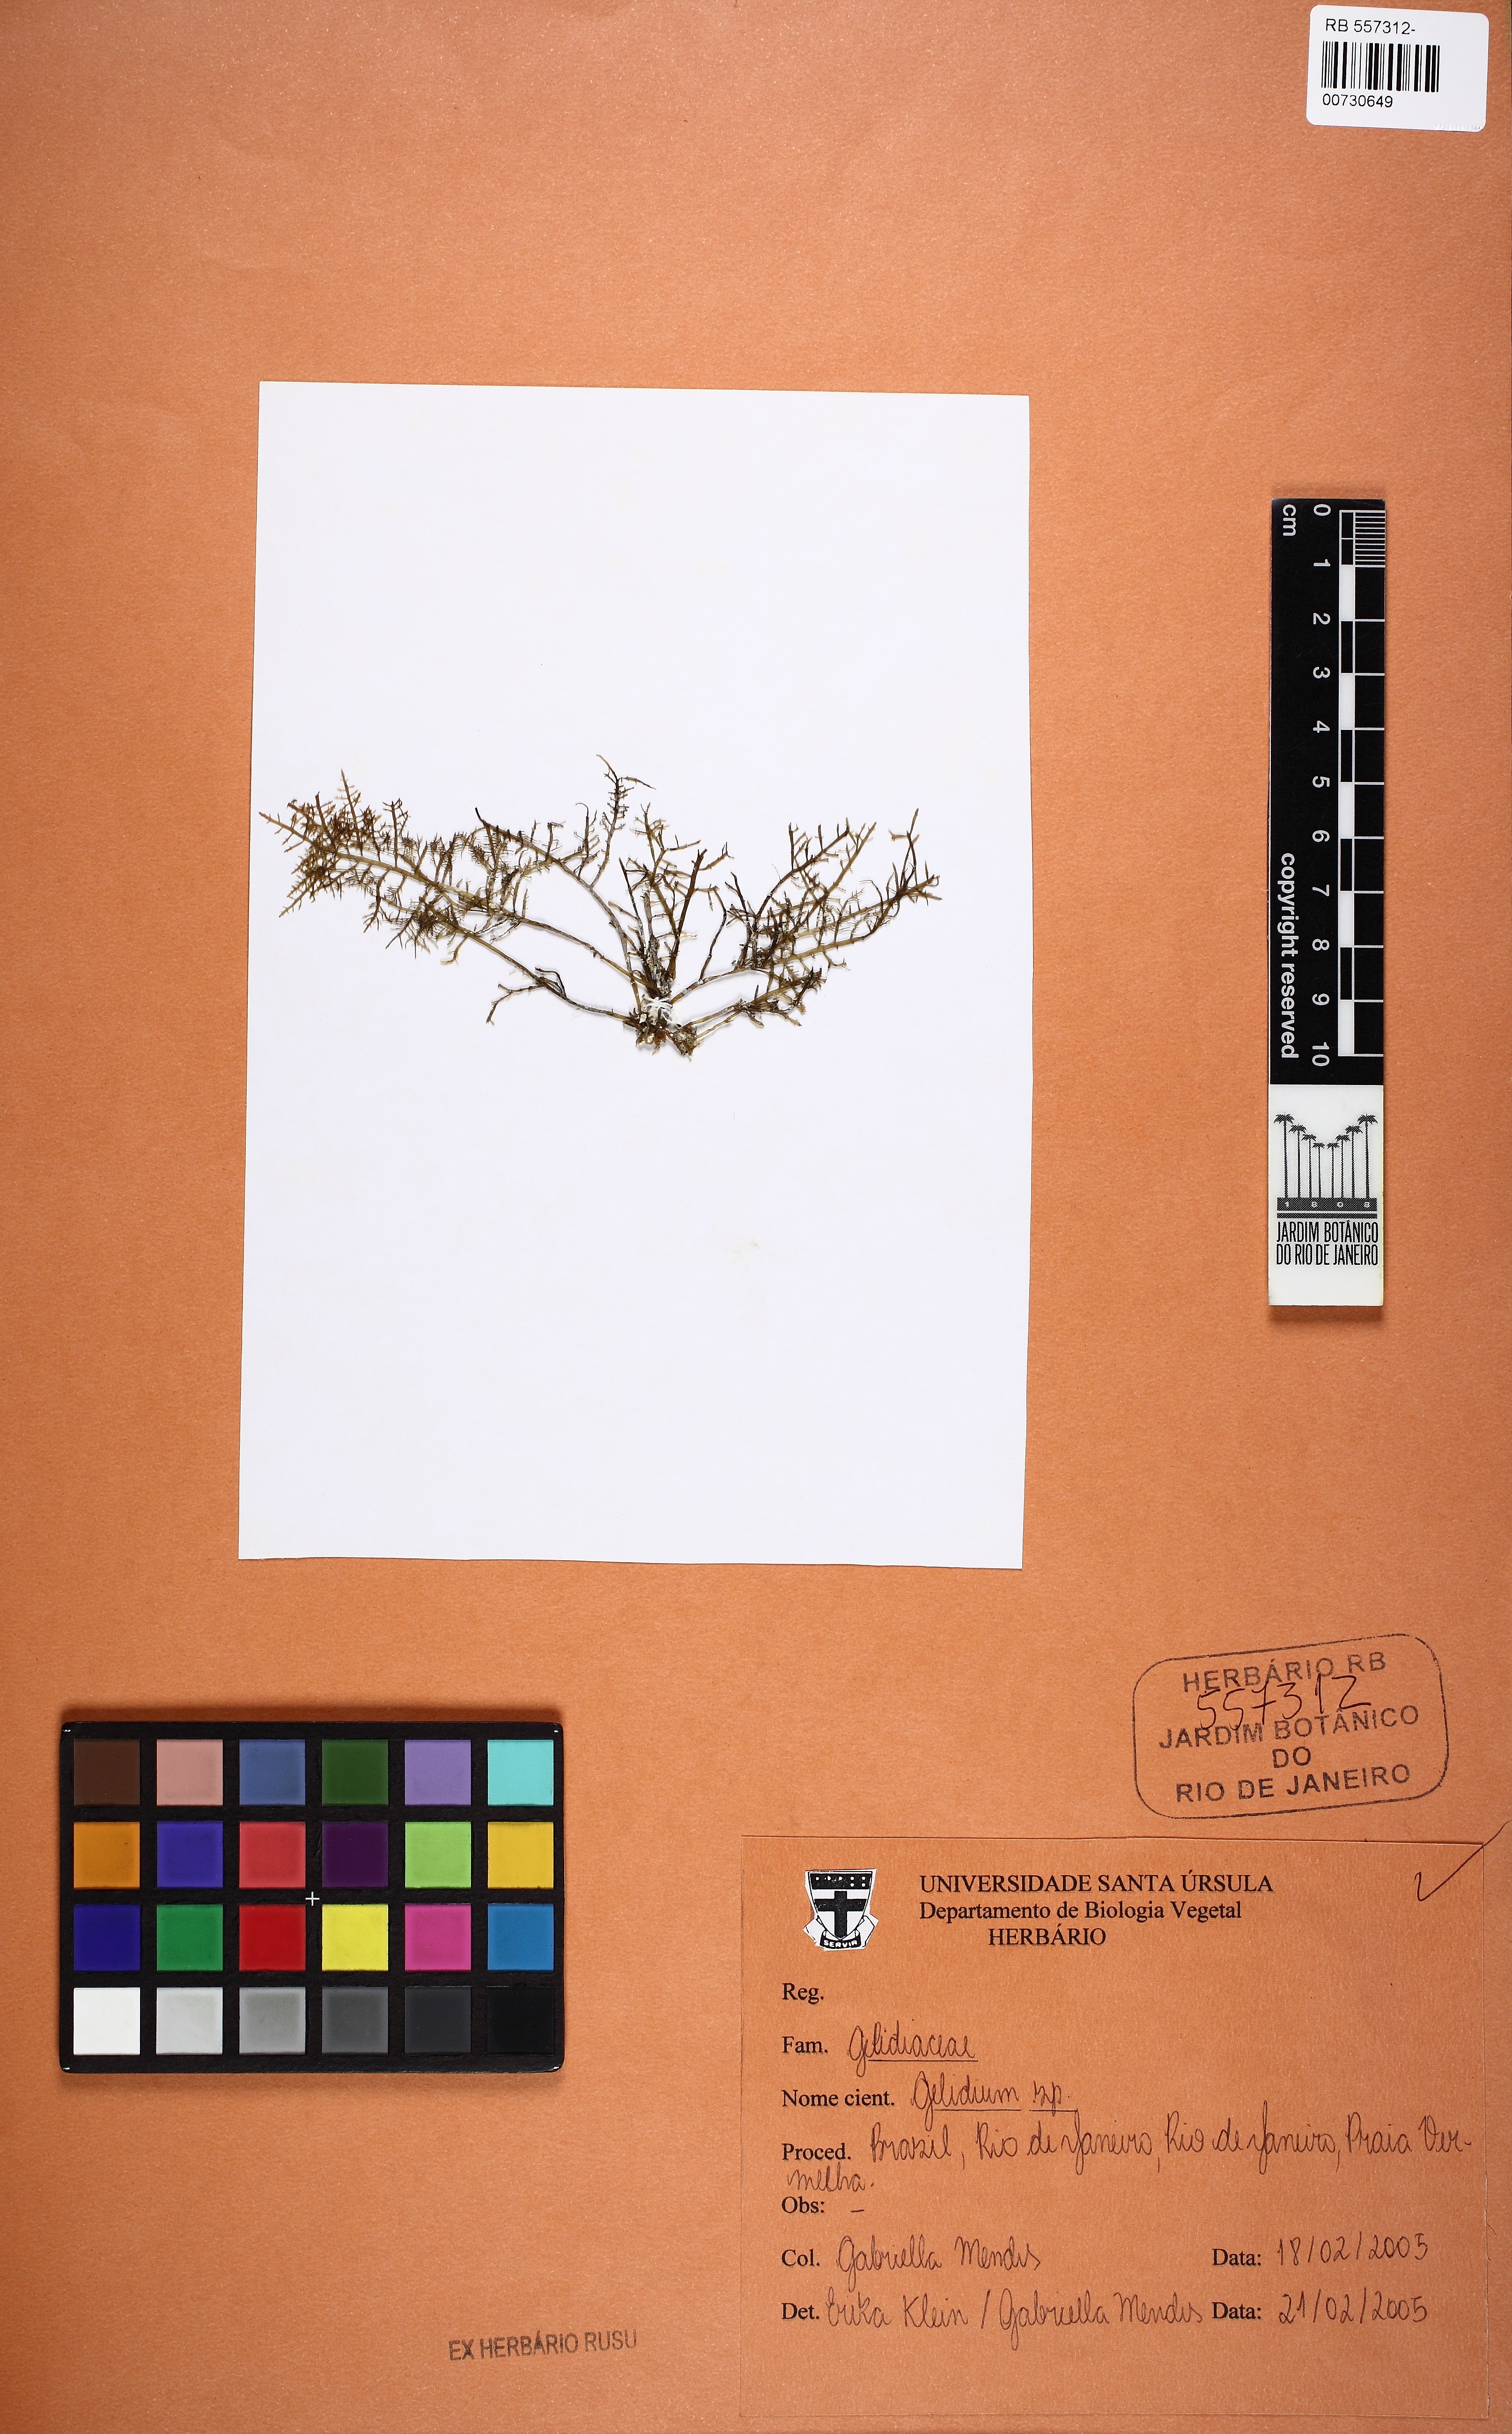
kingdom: Plantae
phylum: Rhodophyta
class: Florideophyceae
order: Gelidiales
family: Gelidiaceae
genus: Gelidium
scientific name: Gelidium
